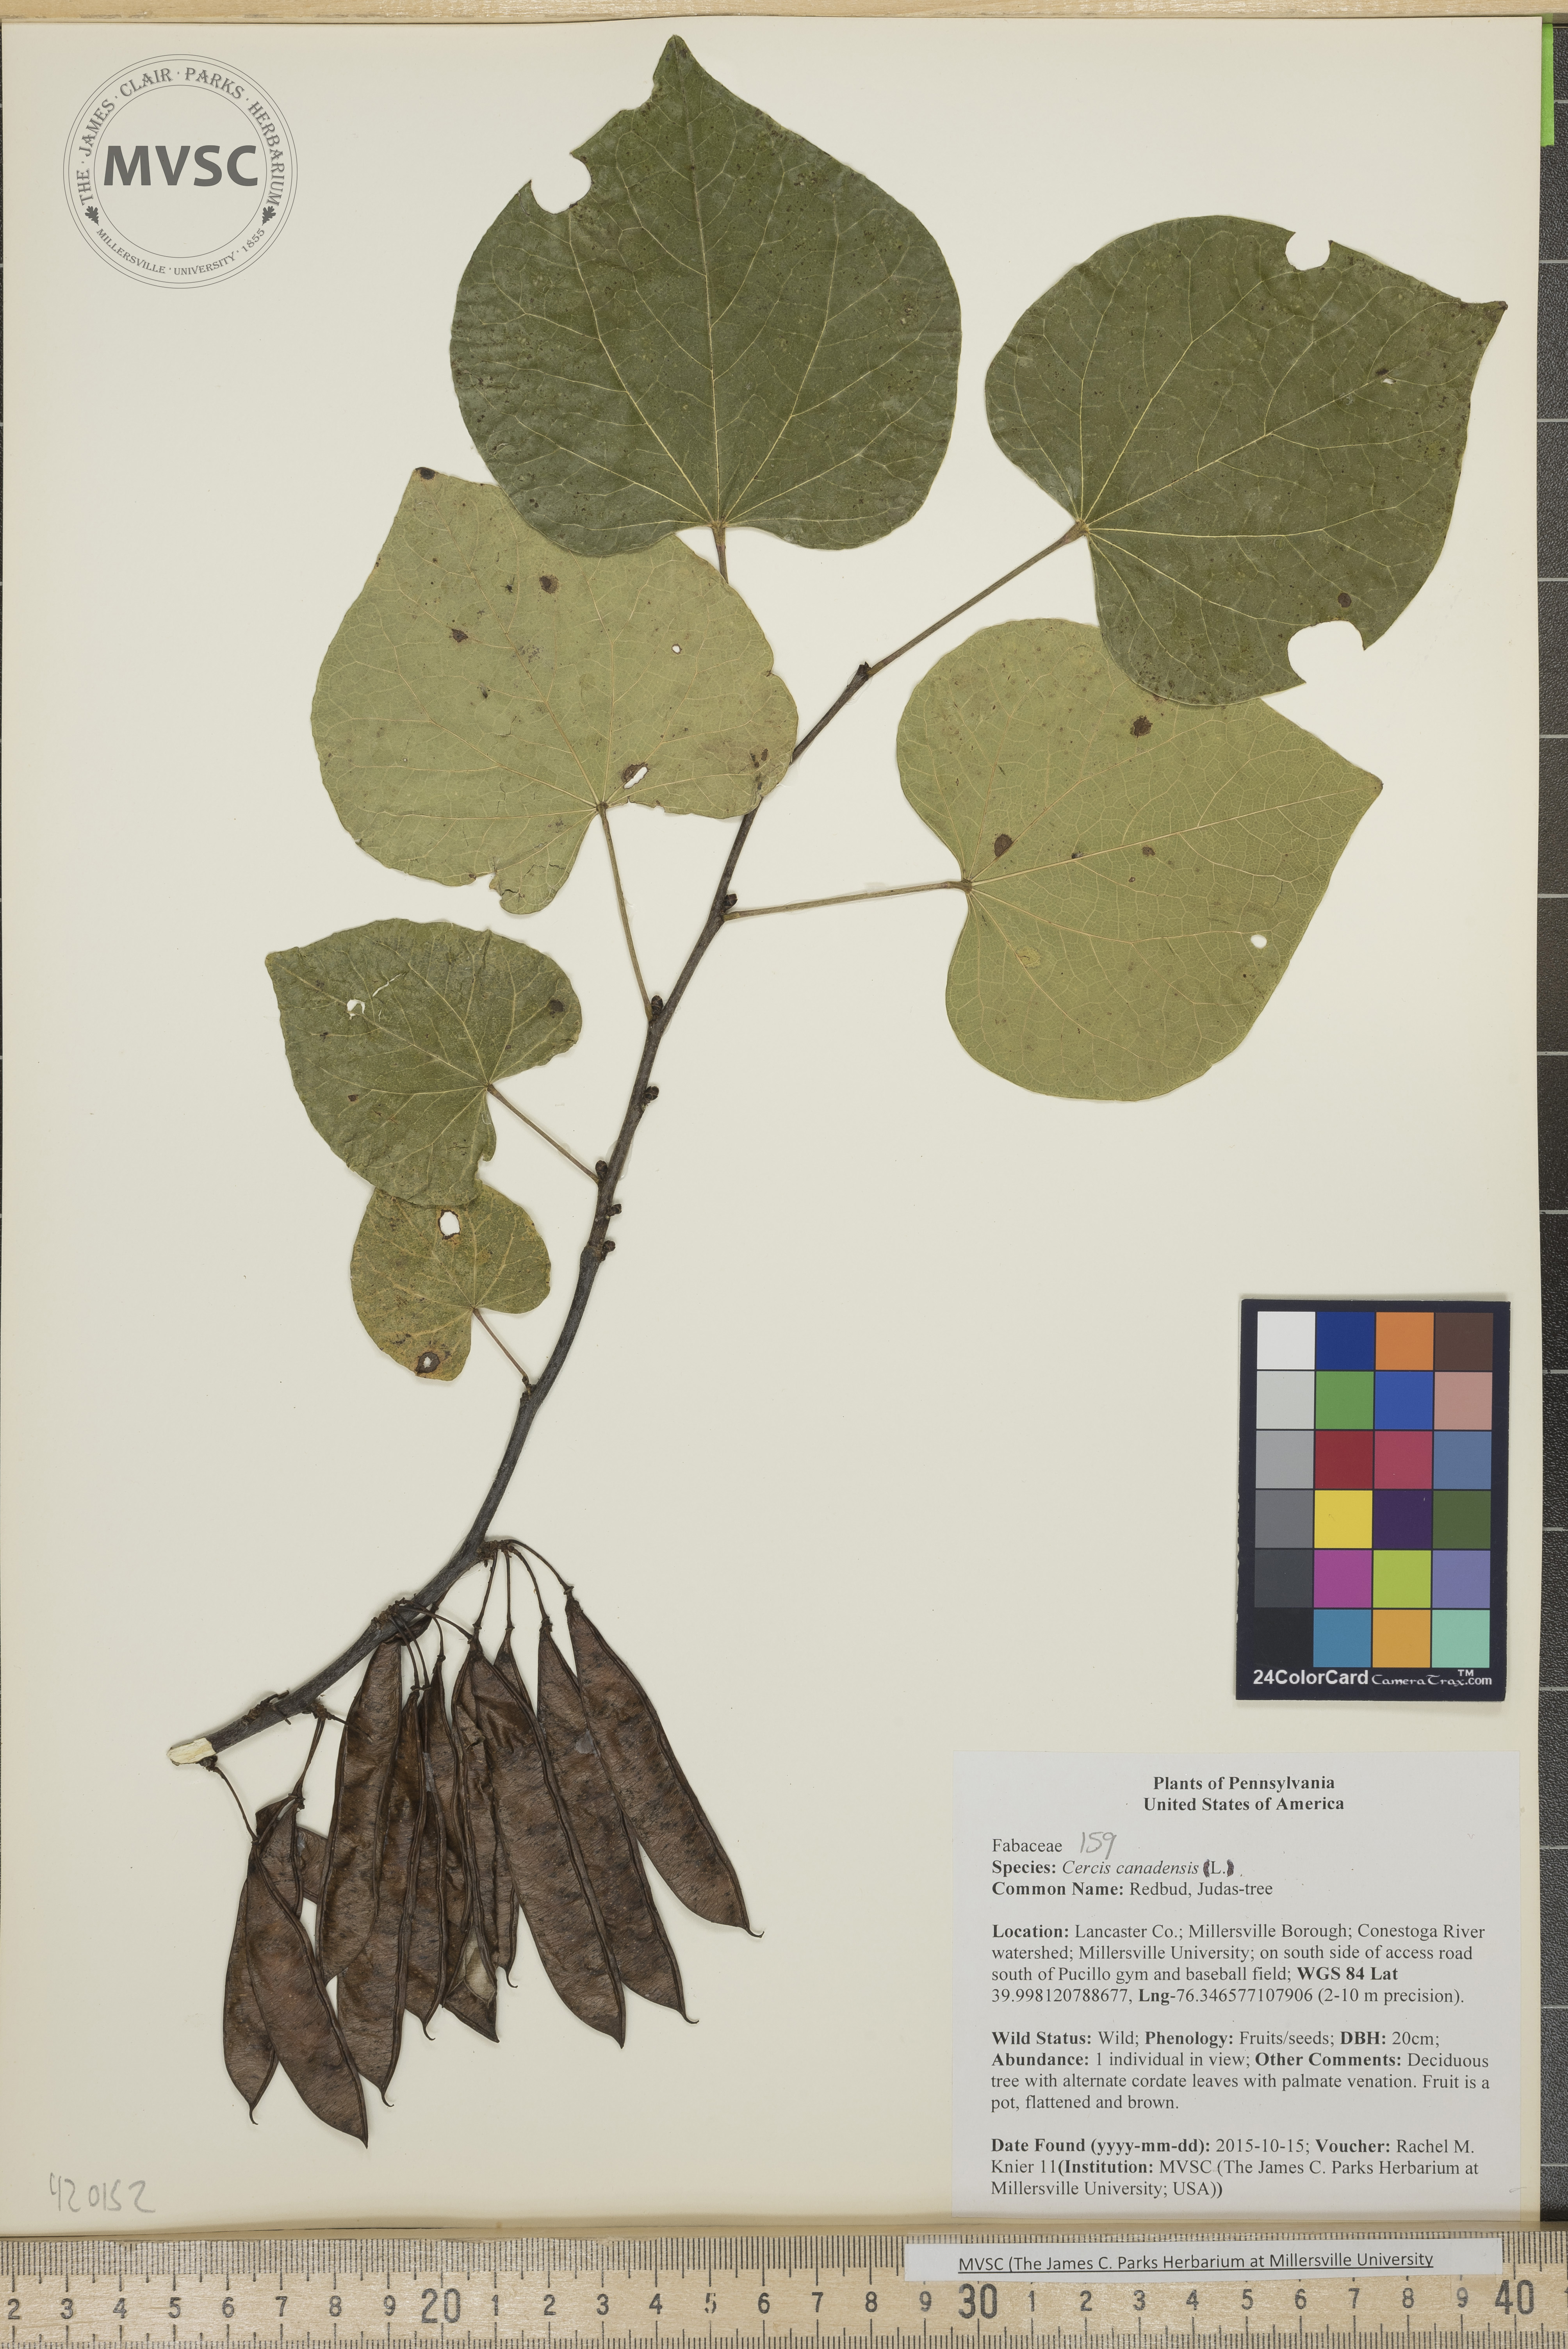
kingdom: Plantae
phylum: Tracheophyta
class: Magnoliopsida
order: Fabales
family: Fabaceae
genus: Cercis
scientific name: Cercis canadensis
